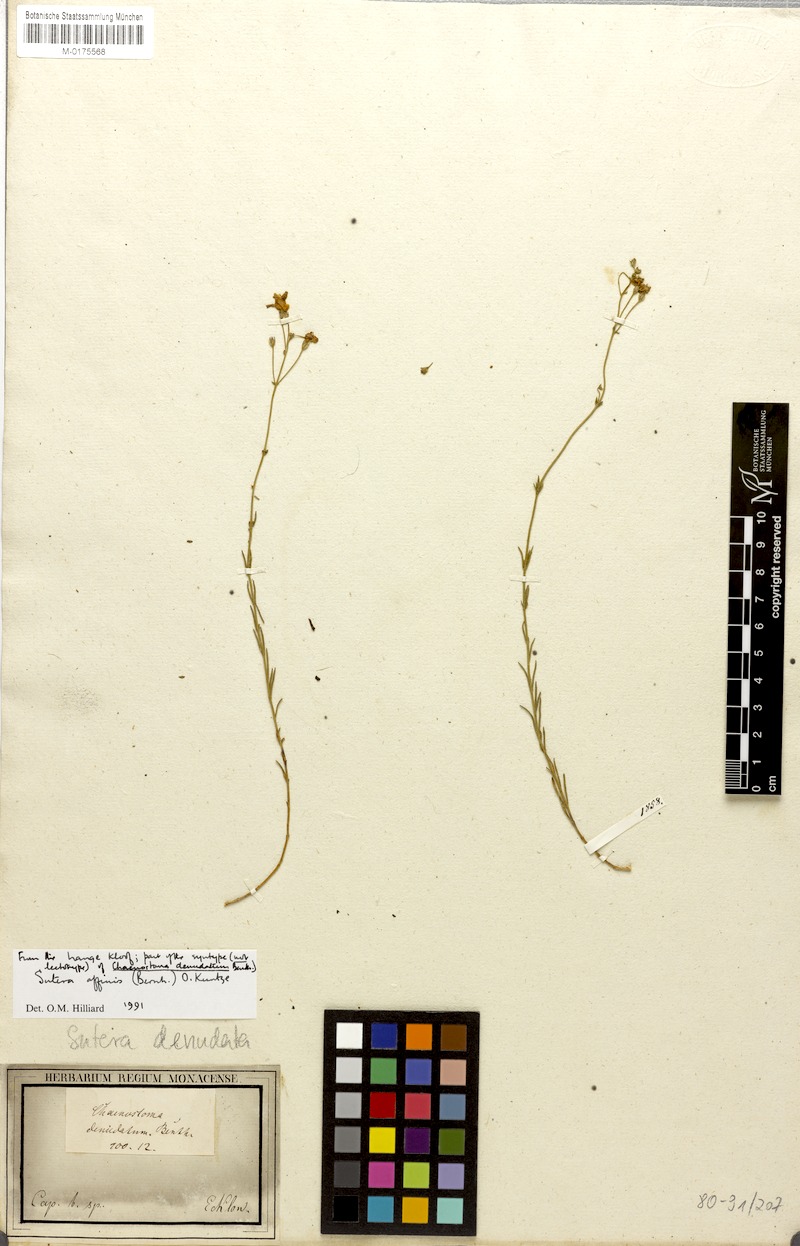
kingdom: Plantae
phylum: Tracheophyta
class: Magnoliopsida
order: Lamiales
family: Scrophulariaceae
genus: Chaenostoma
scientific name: Chaenostoma affine
